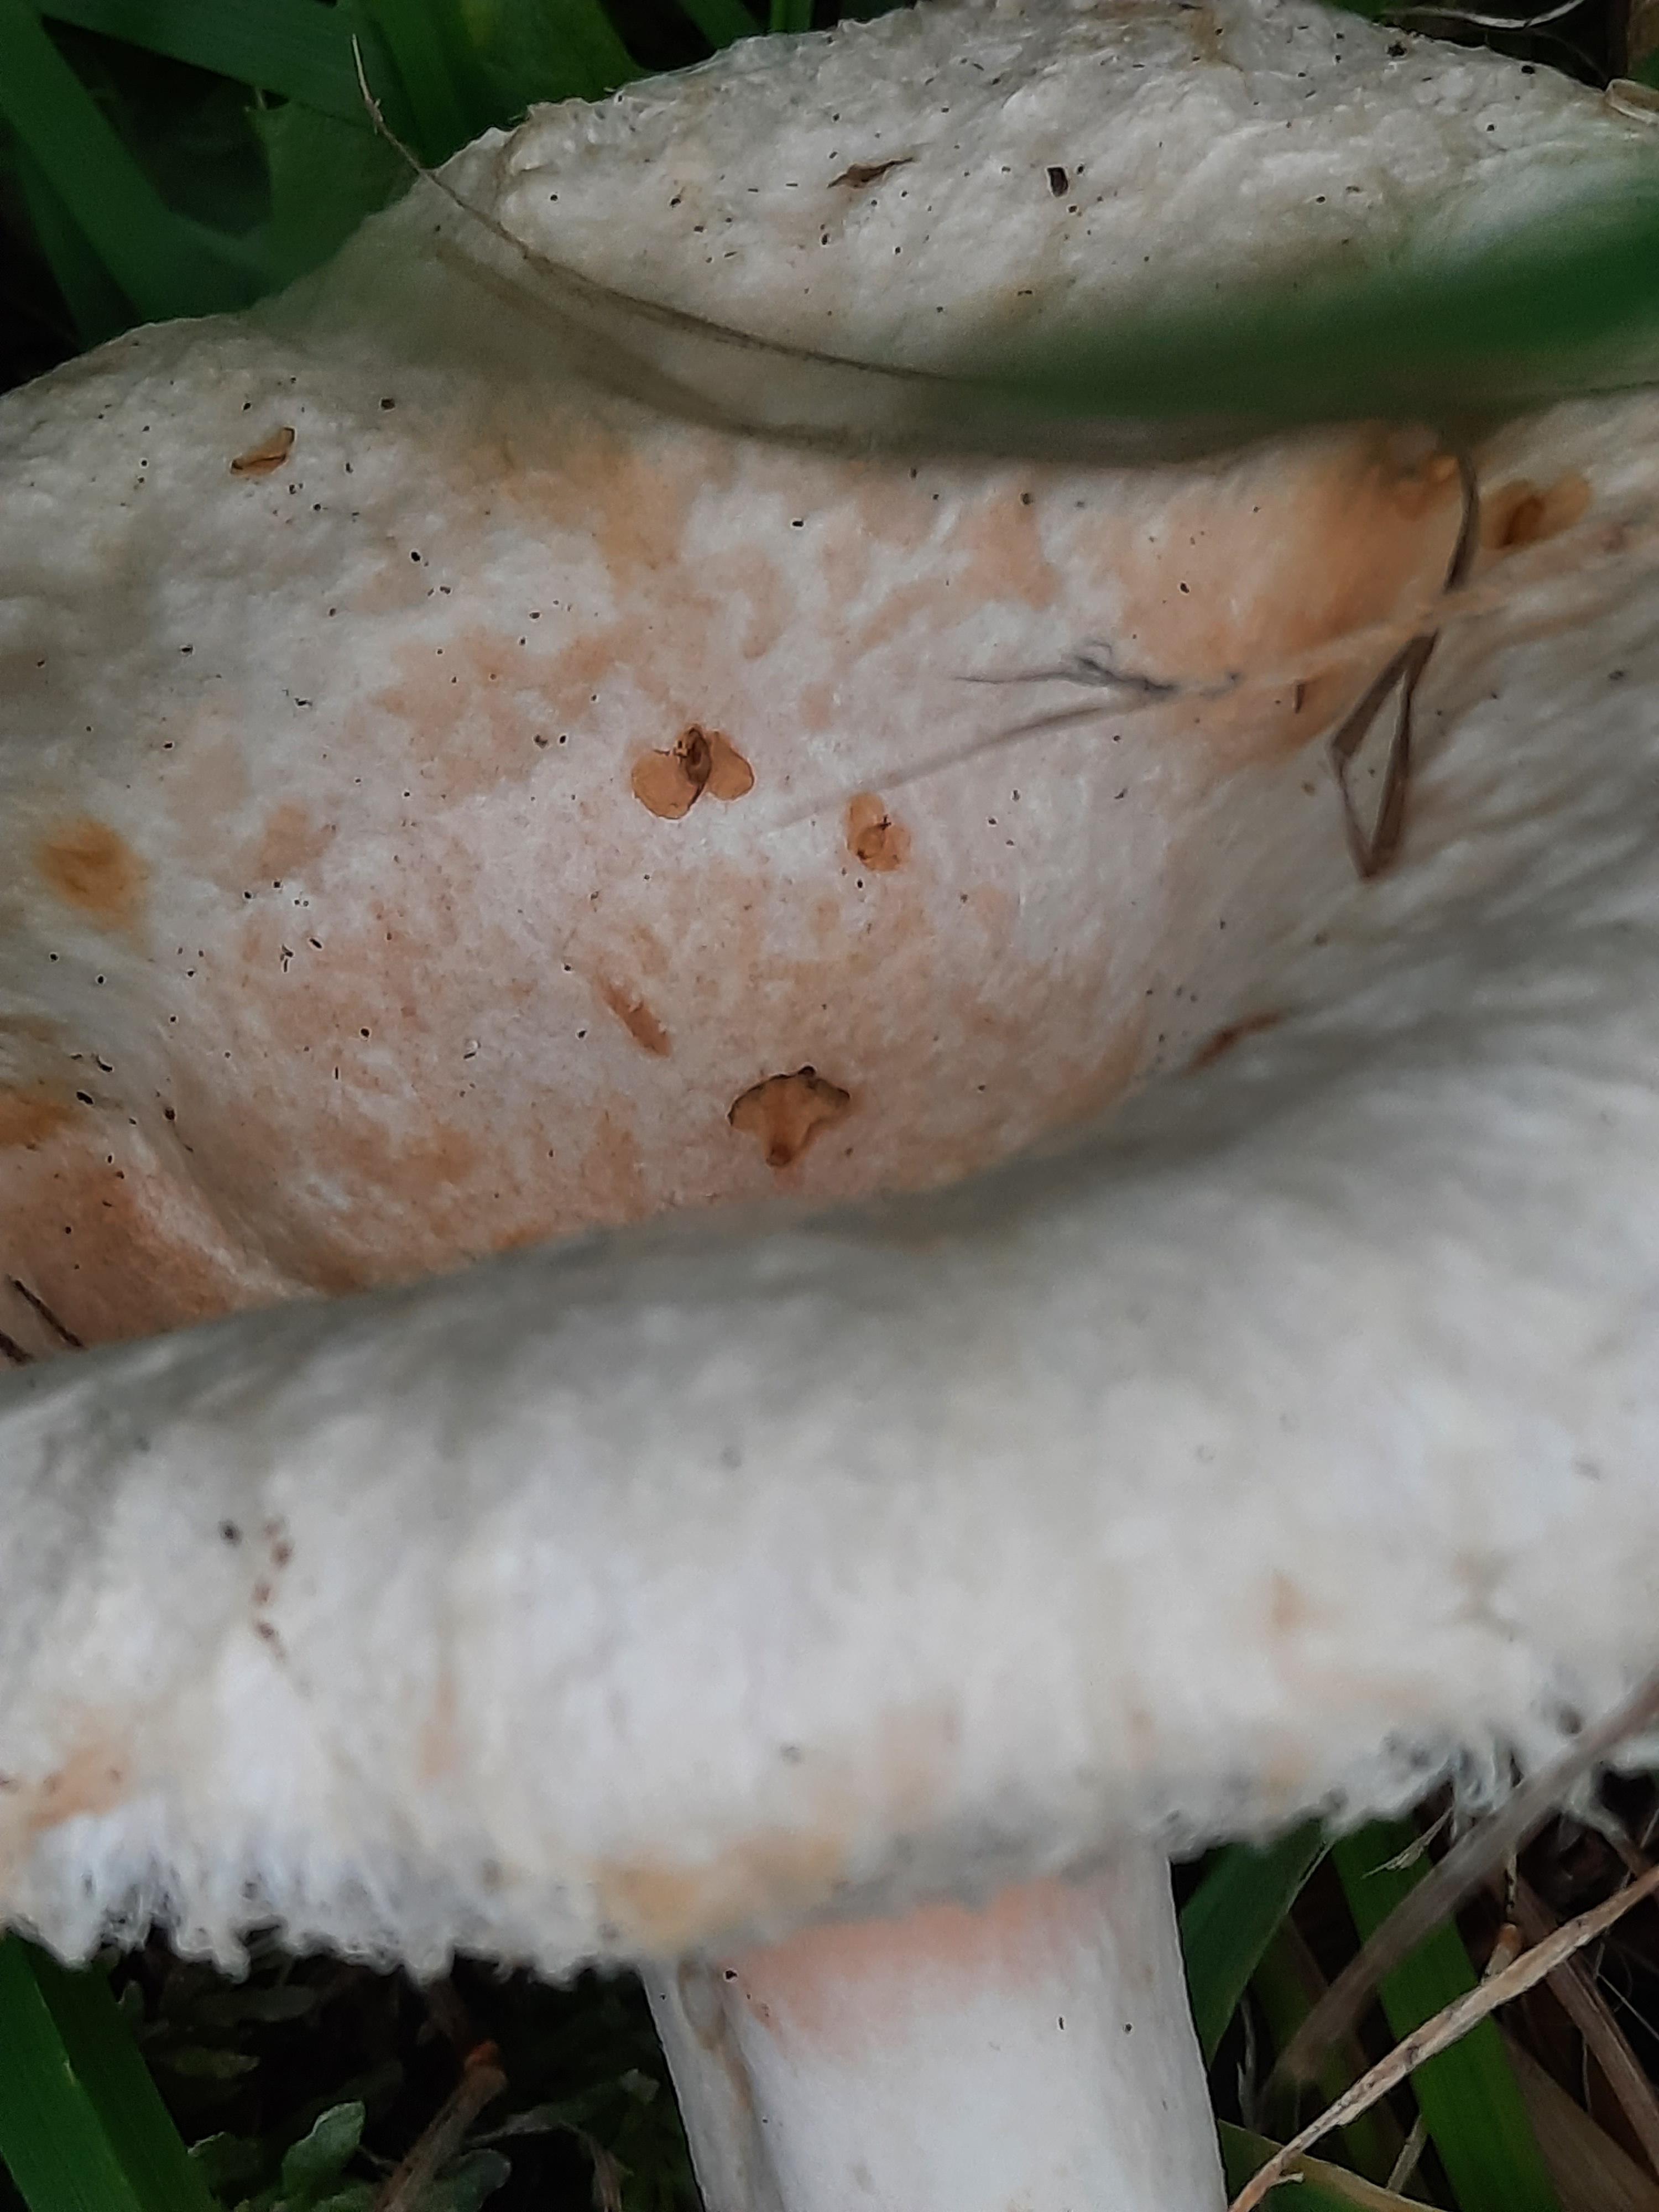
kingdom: Fungi
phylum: Basidiomycota
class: Agaricomycetes
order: Russulales
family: Russulaceae
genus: Lactarius
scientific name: Lactarius pubescens
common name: dunet mælkehat
